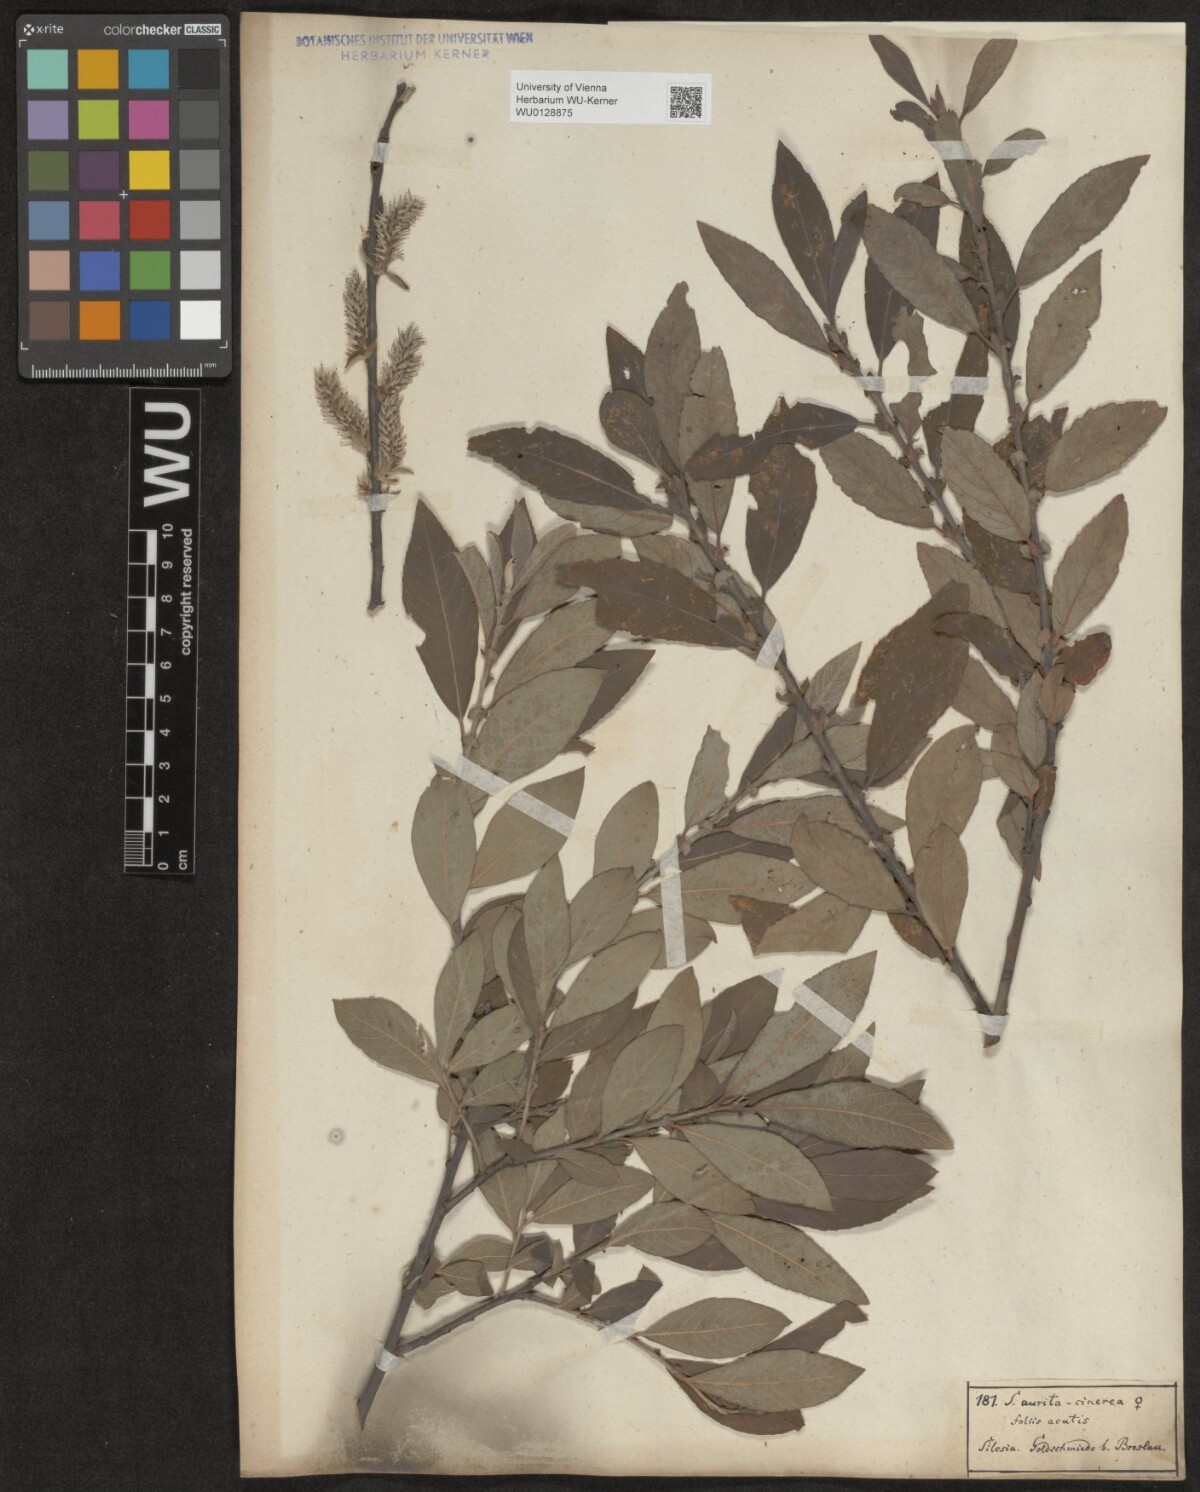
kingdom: Plantae
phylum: Tracheophyta
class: Magnoliopsida
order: Malpighiales
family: Salicaceae
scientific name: Salicaceae
